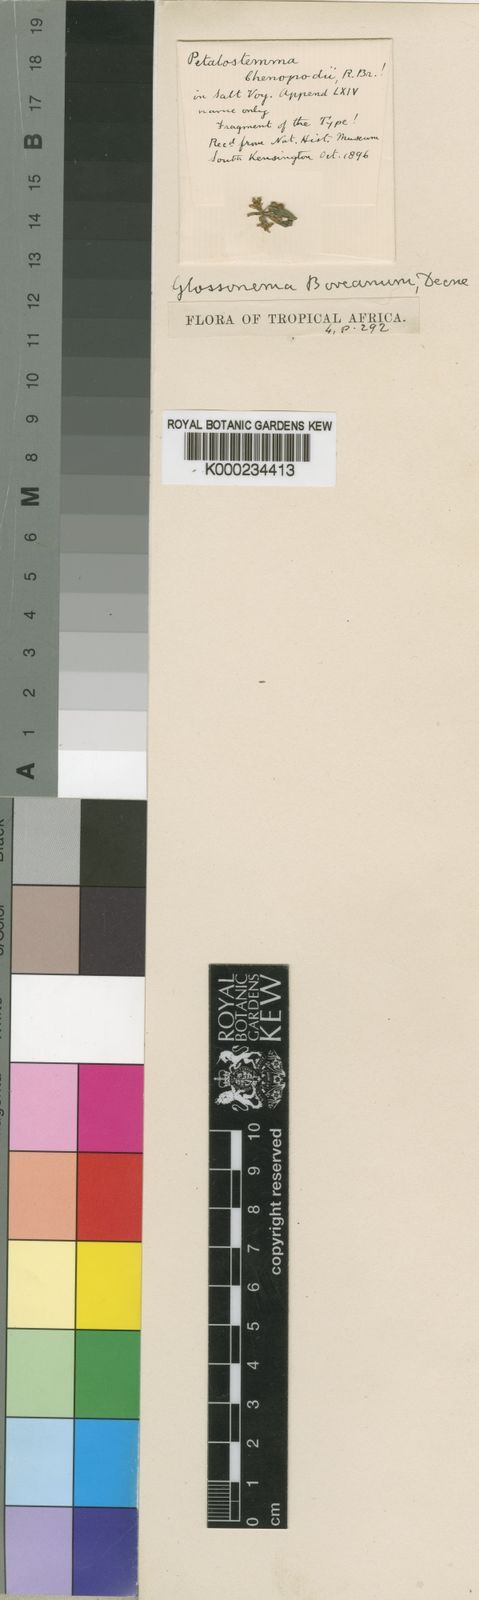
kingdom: Plantae
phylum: Tracheophyta
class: Magnoliopsida
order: Gentianales
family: Apocynaceae
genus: Cynanchum
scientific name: Cynanchum boveanum
